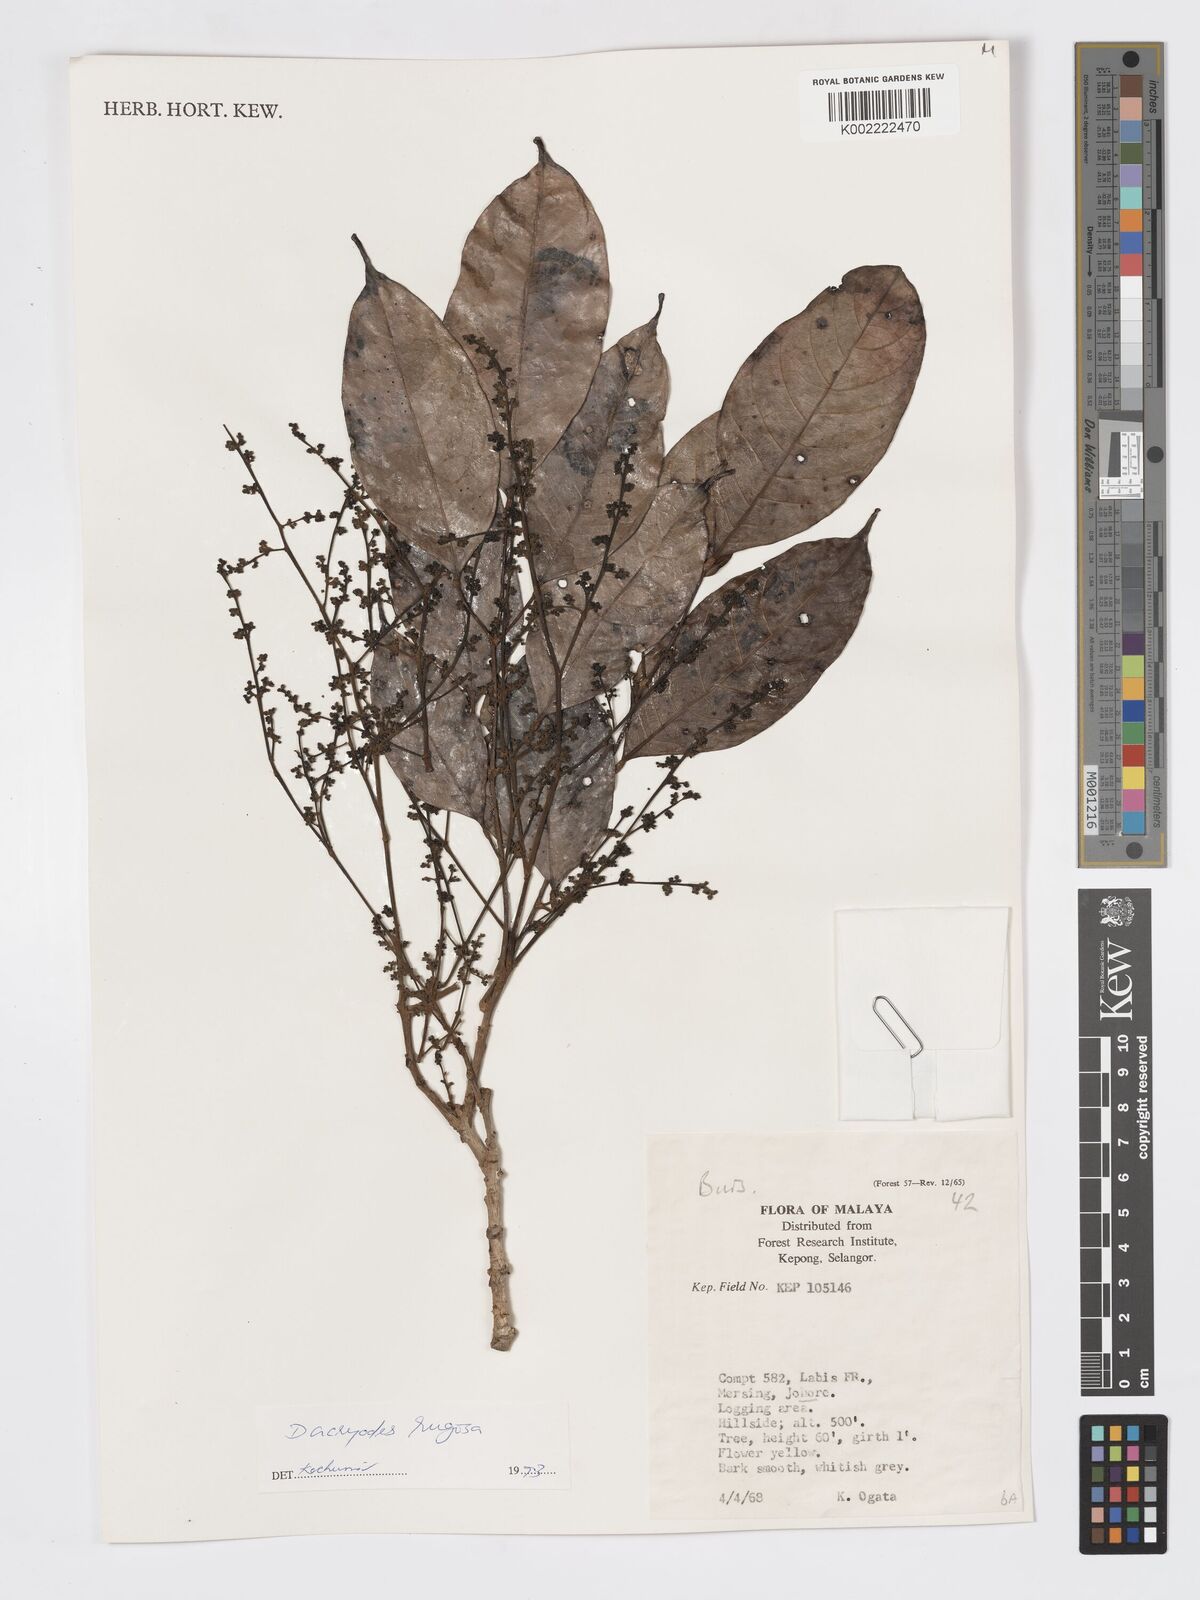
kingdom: Plantae
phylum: Tracheophyta
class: Magnoliopsida
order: Sapindales
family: Burseraceae
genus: Dacryodes
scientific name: Dacryodes rugosa
